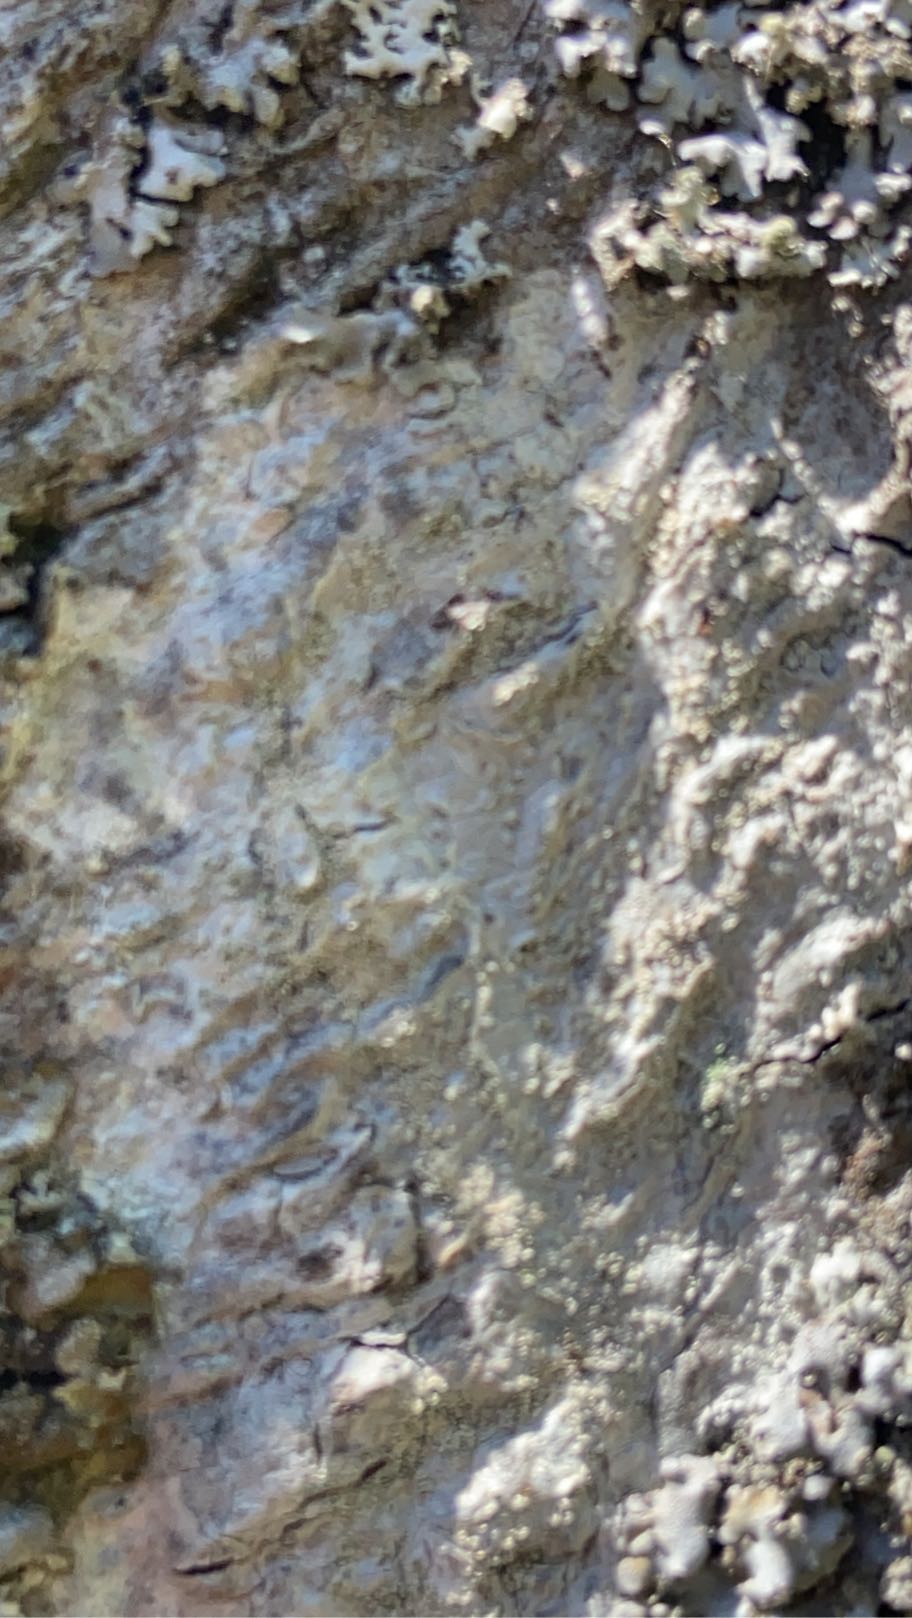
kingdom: Fungi
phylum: Ascomycota
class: Lecanoromycetes
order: Ostropales
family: Phlyctidaceae
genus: Phlyctis
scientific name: Phlyctis argena
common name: Almindelig sølvlav
